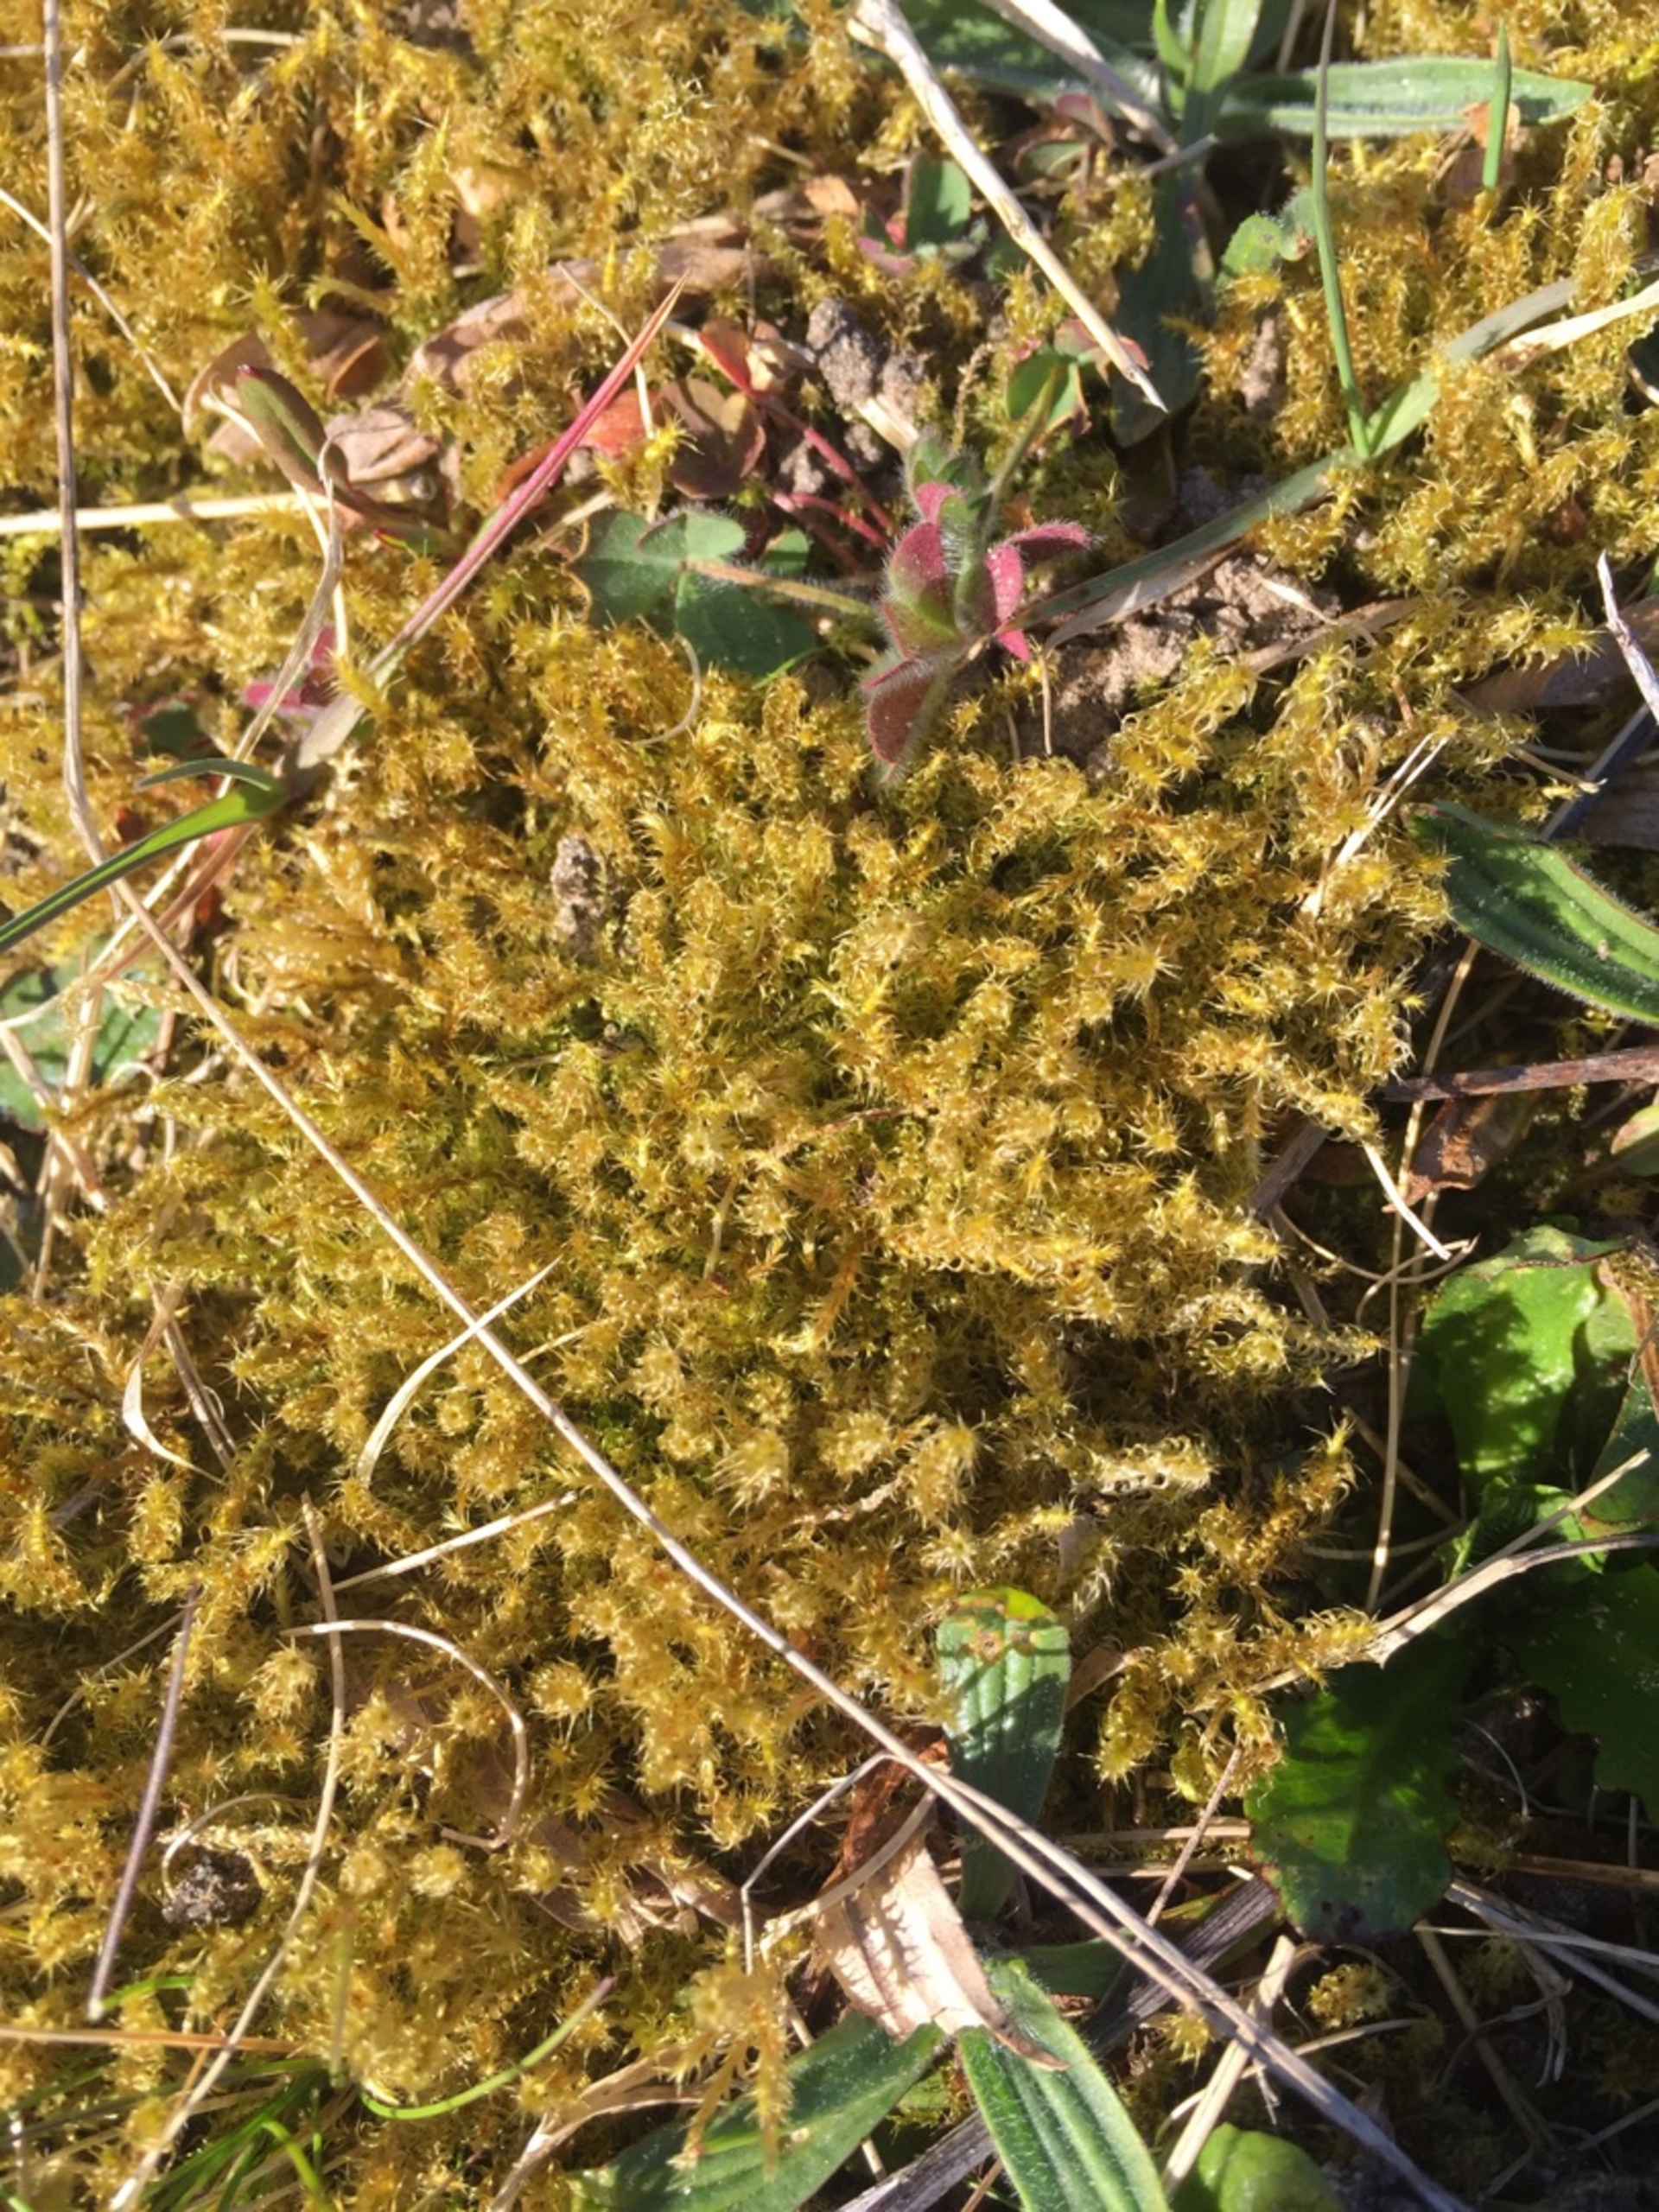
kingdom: Plantae
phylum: Bryophyta
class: Bryopsida
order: Hypnales
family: Hylocomiaceae
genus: Rhytidiadelphus
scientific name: Rhytidiadelphus squarrosus
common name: Plæne-kransemos
